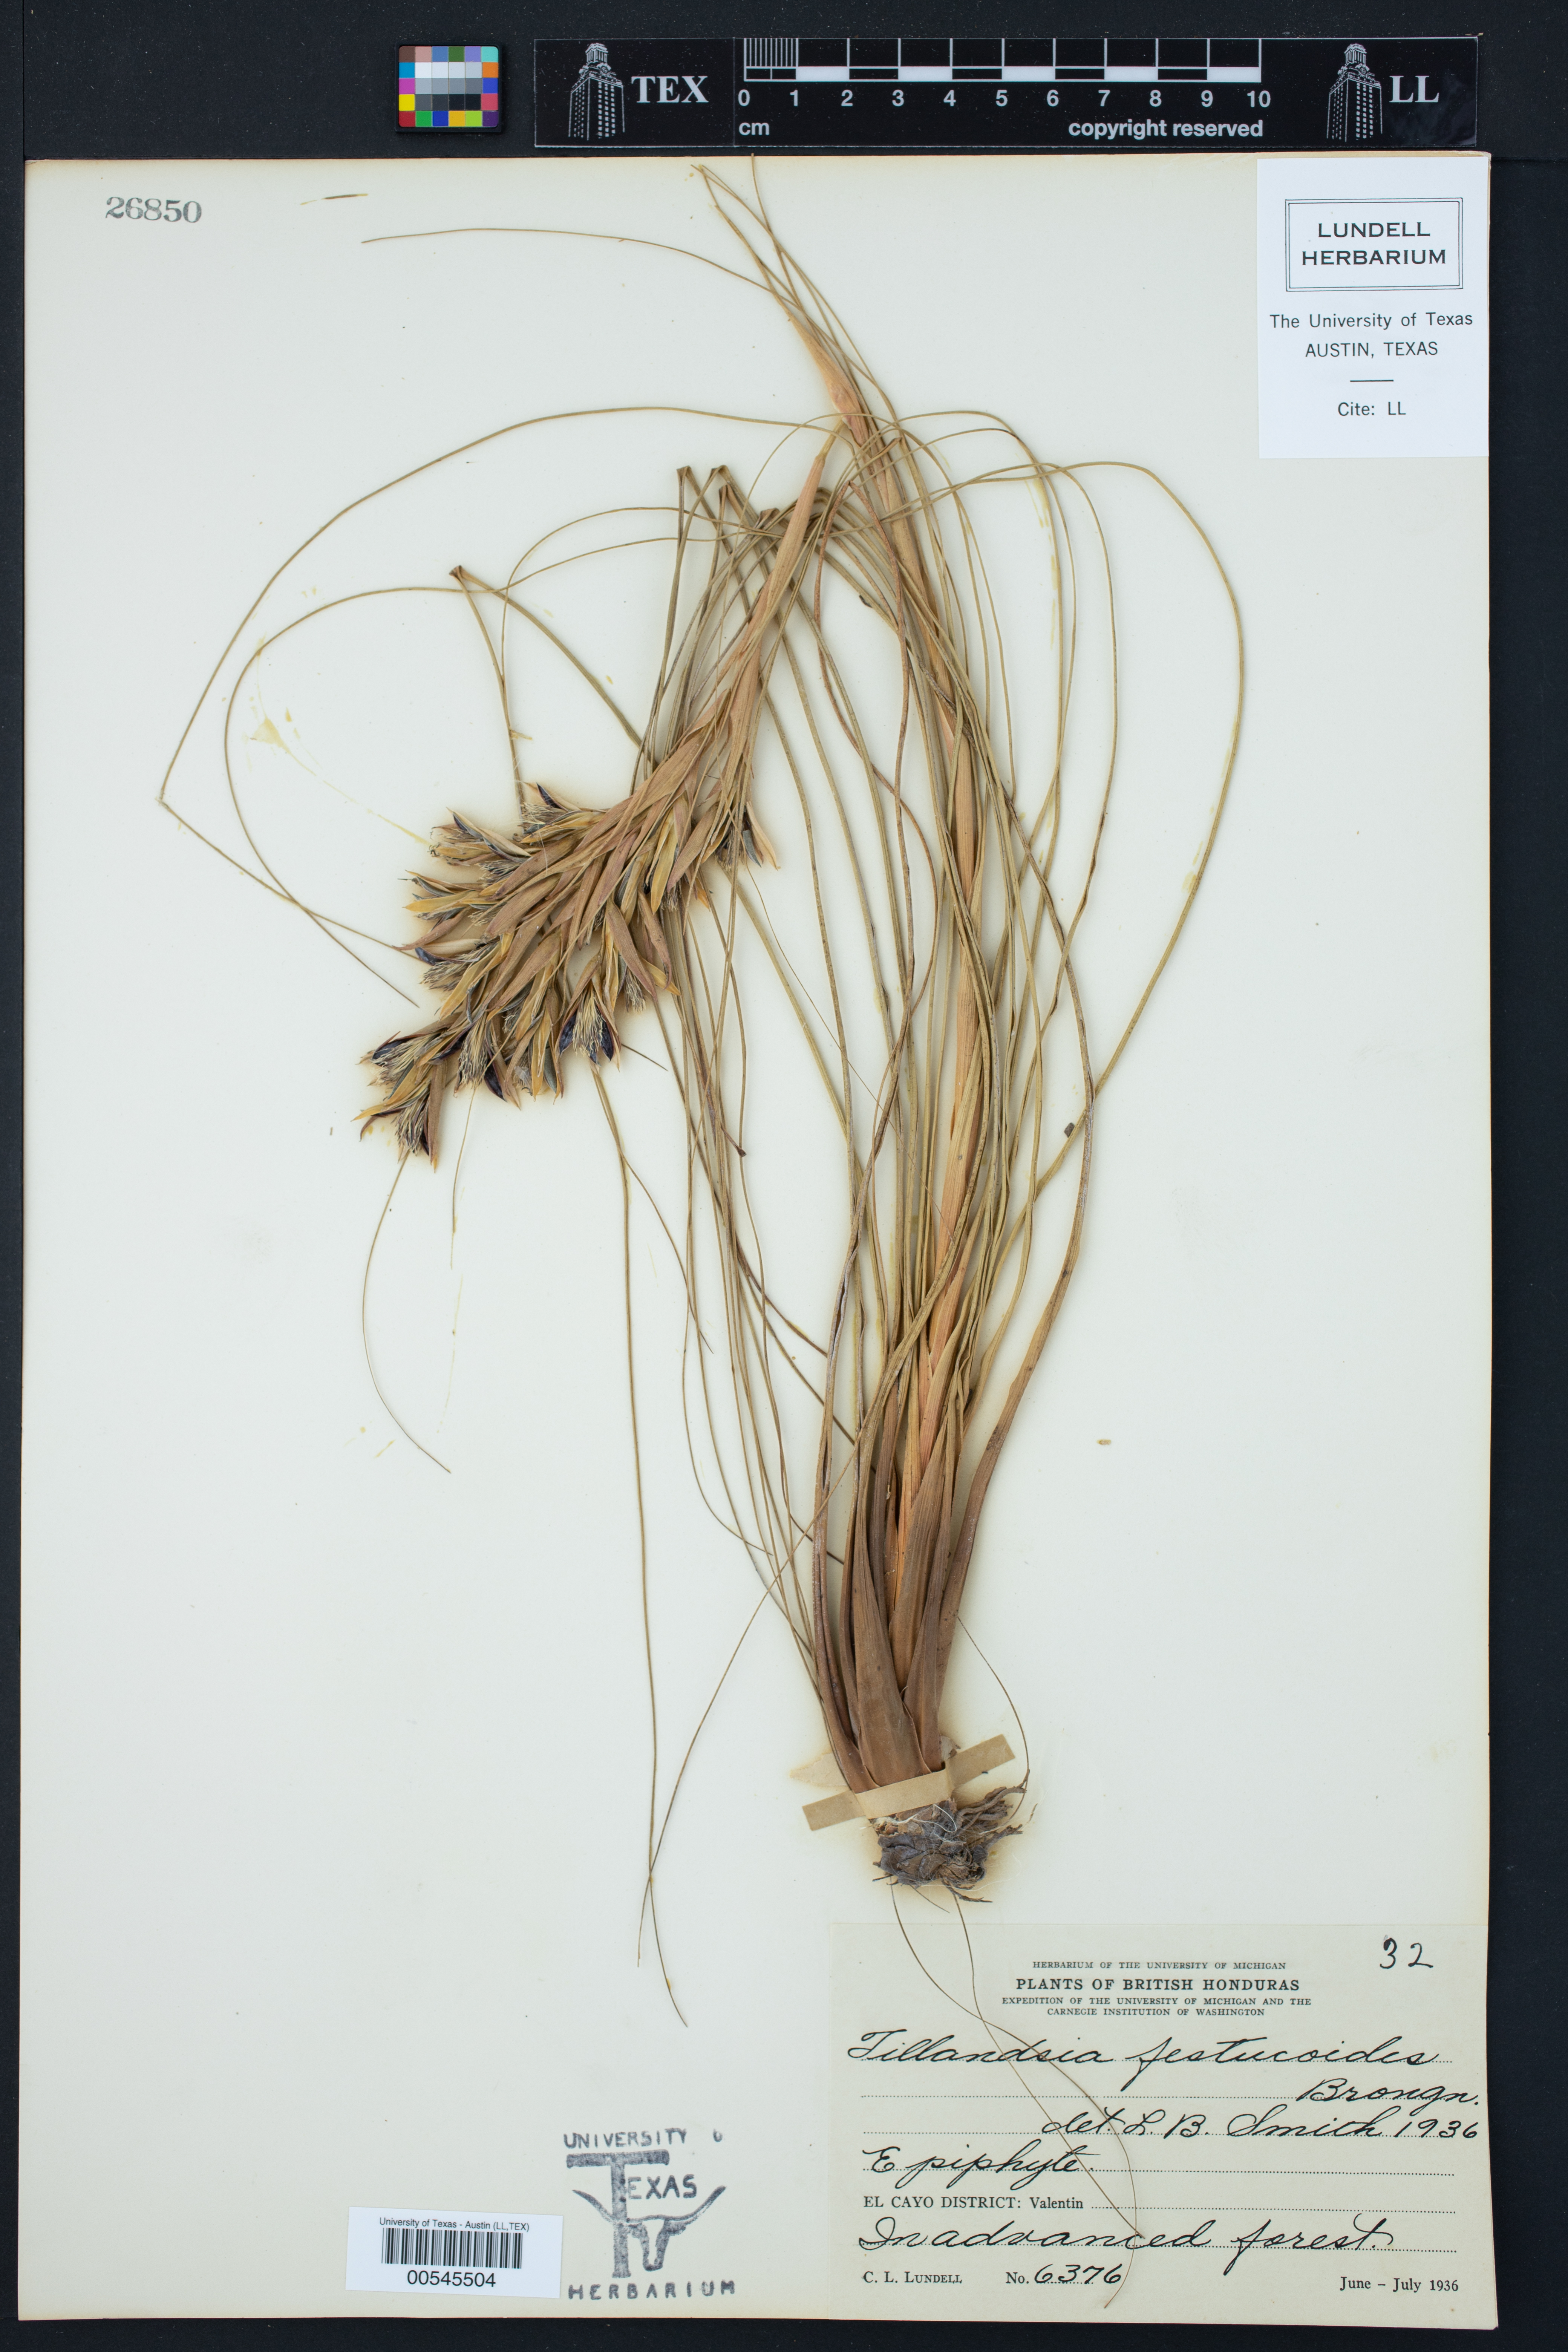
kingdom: Plantae
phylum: Tracheophyta
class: Liliopsida
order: Poales
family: Bromeliaceae
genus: Tillandsia
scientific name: Tillandsia festucoides
